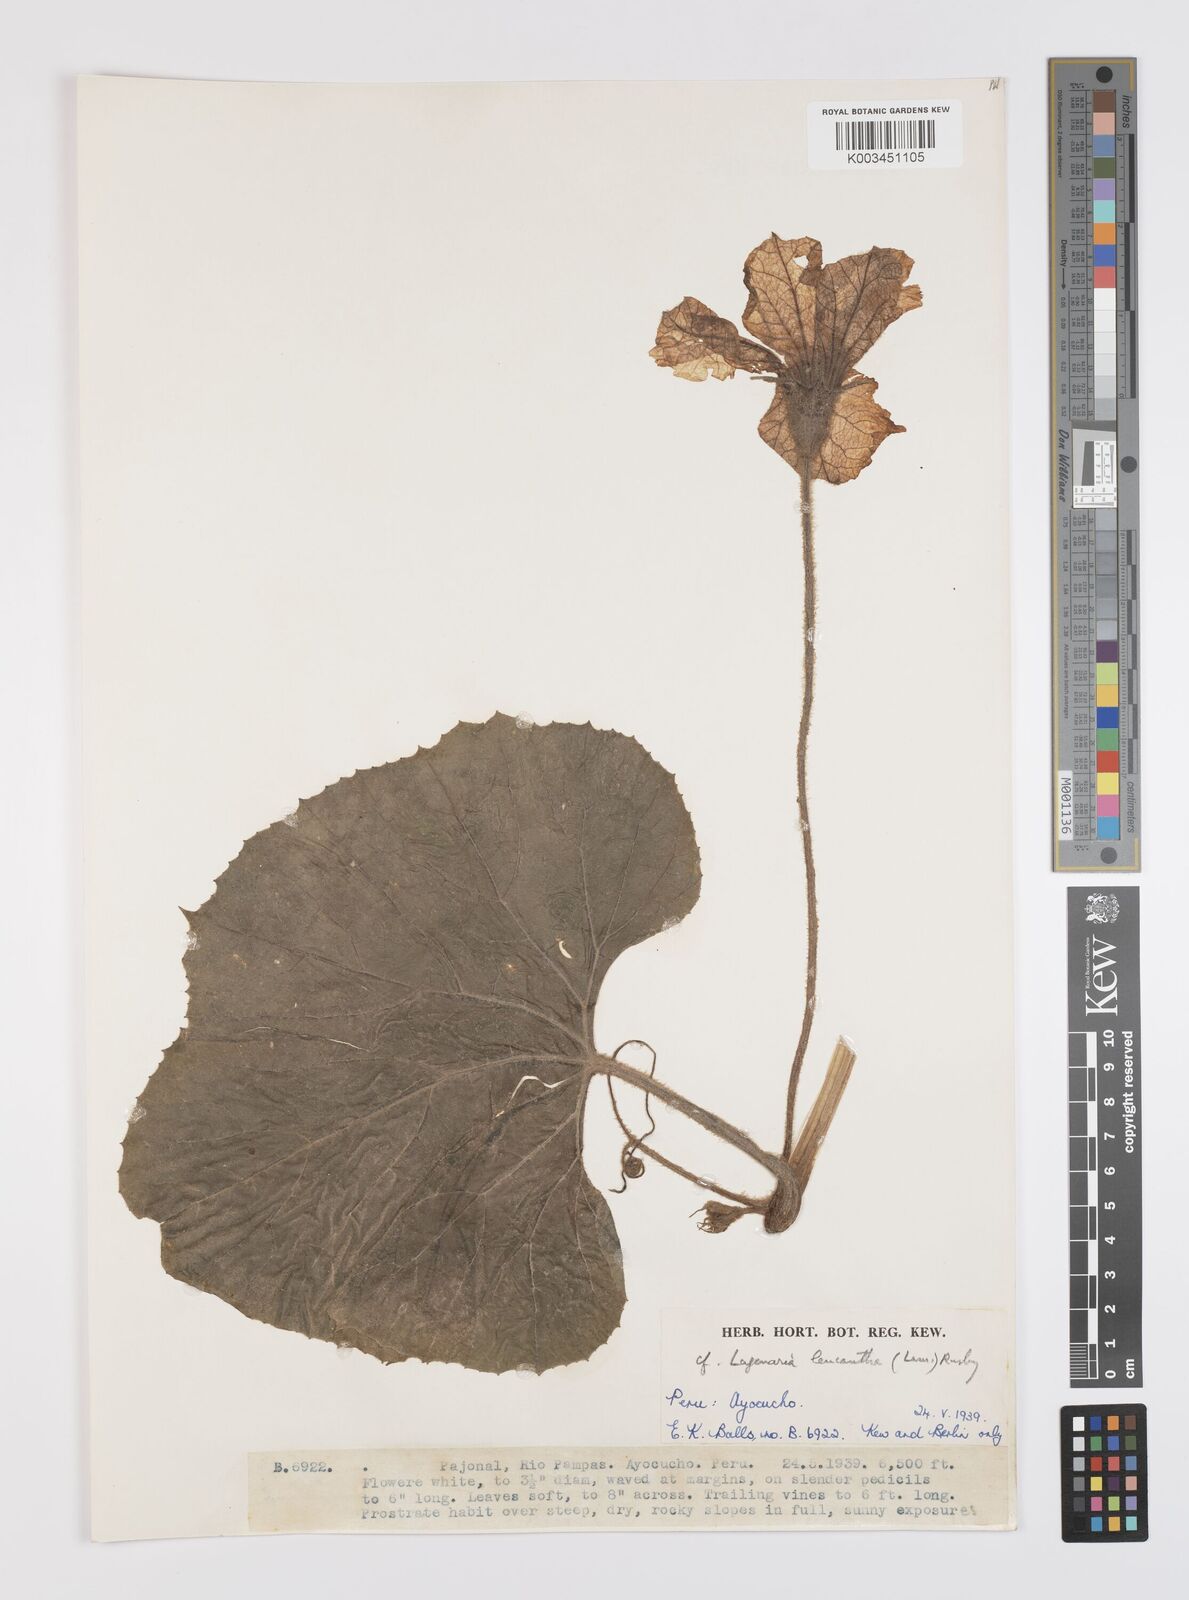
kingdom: Plantae
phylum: Tracheophyta
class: Magnoliopsida
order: Cucurbitales
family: Cucurbitaceae
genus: Lagenaria
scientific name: Lagenaria siceraria
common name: Bottle gourd
